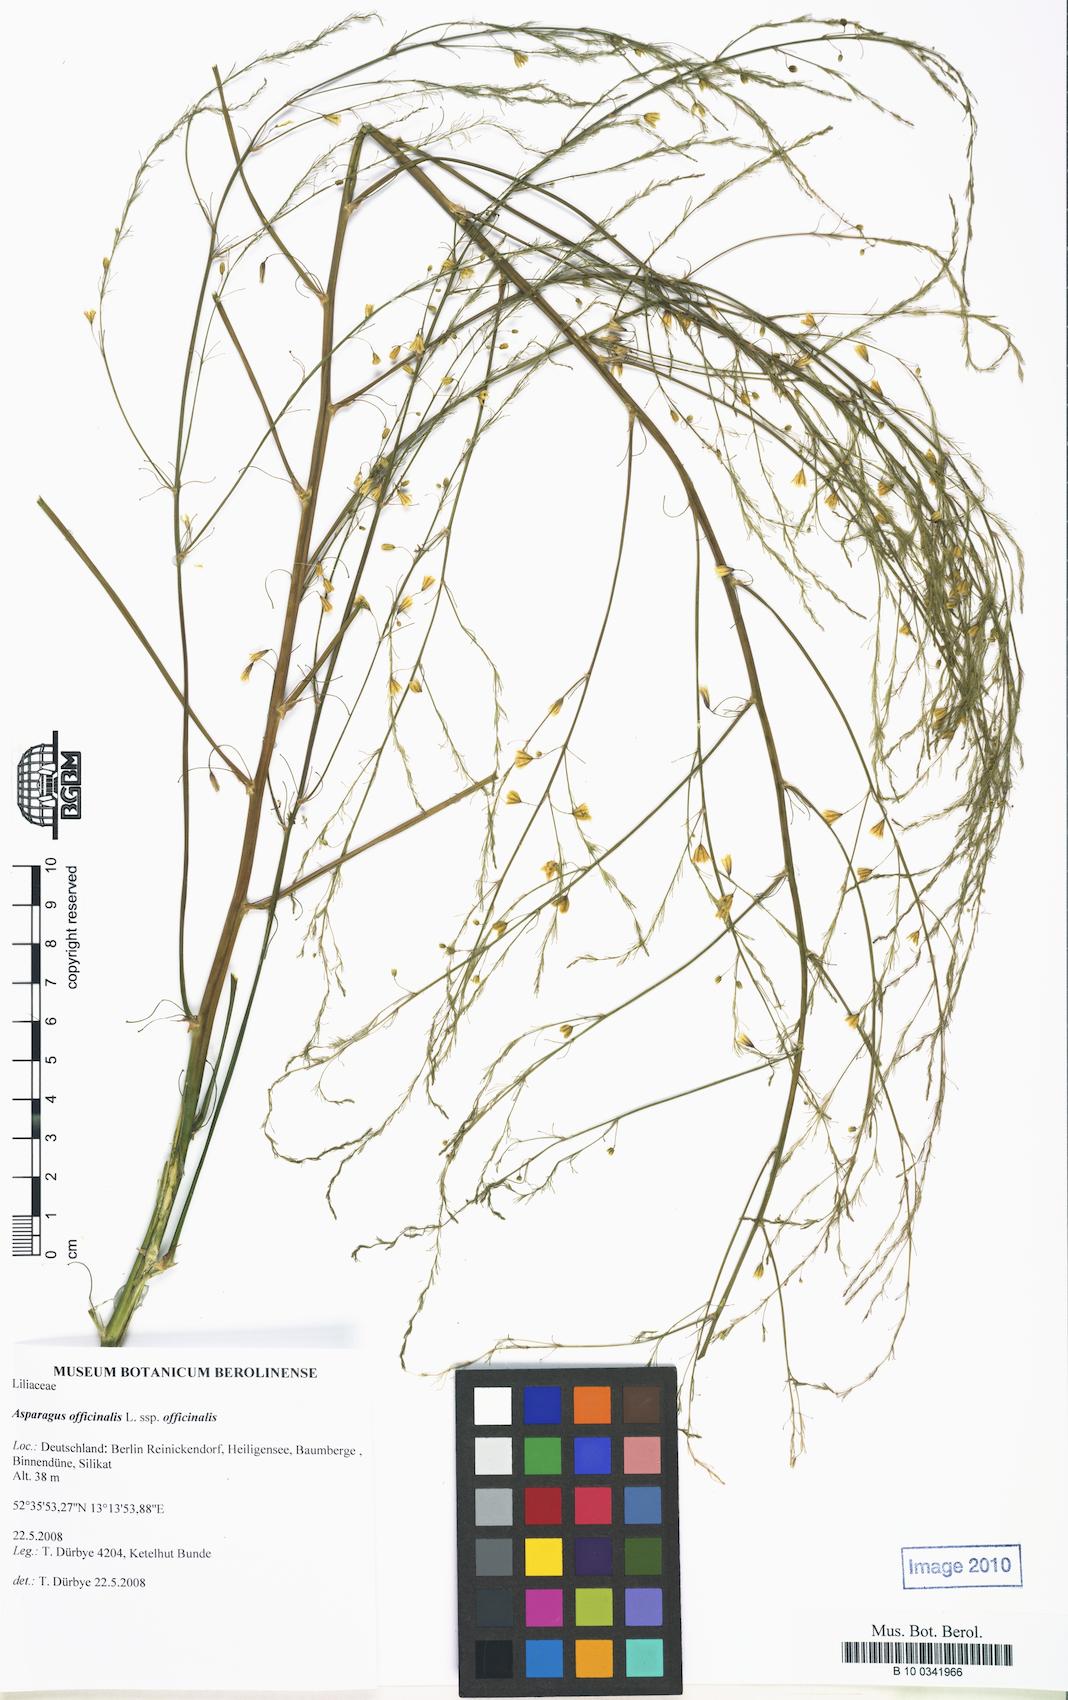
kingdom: Plantae
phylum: Tracheophyta
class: Liliopsida
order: Asparagales
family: Asparagaceae
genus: Asparagus
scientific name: Asparagus officinalis
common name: Garden asparagus
